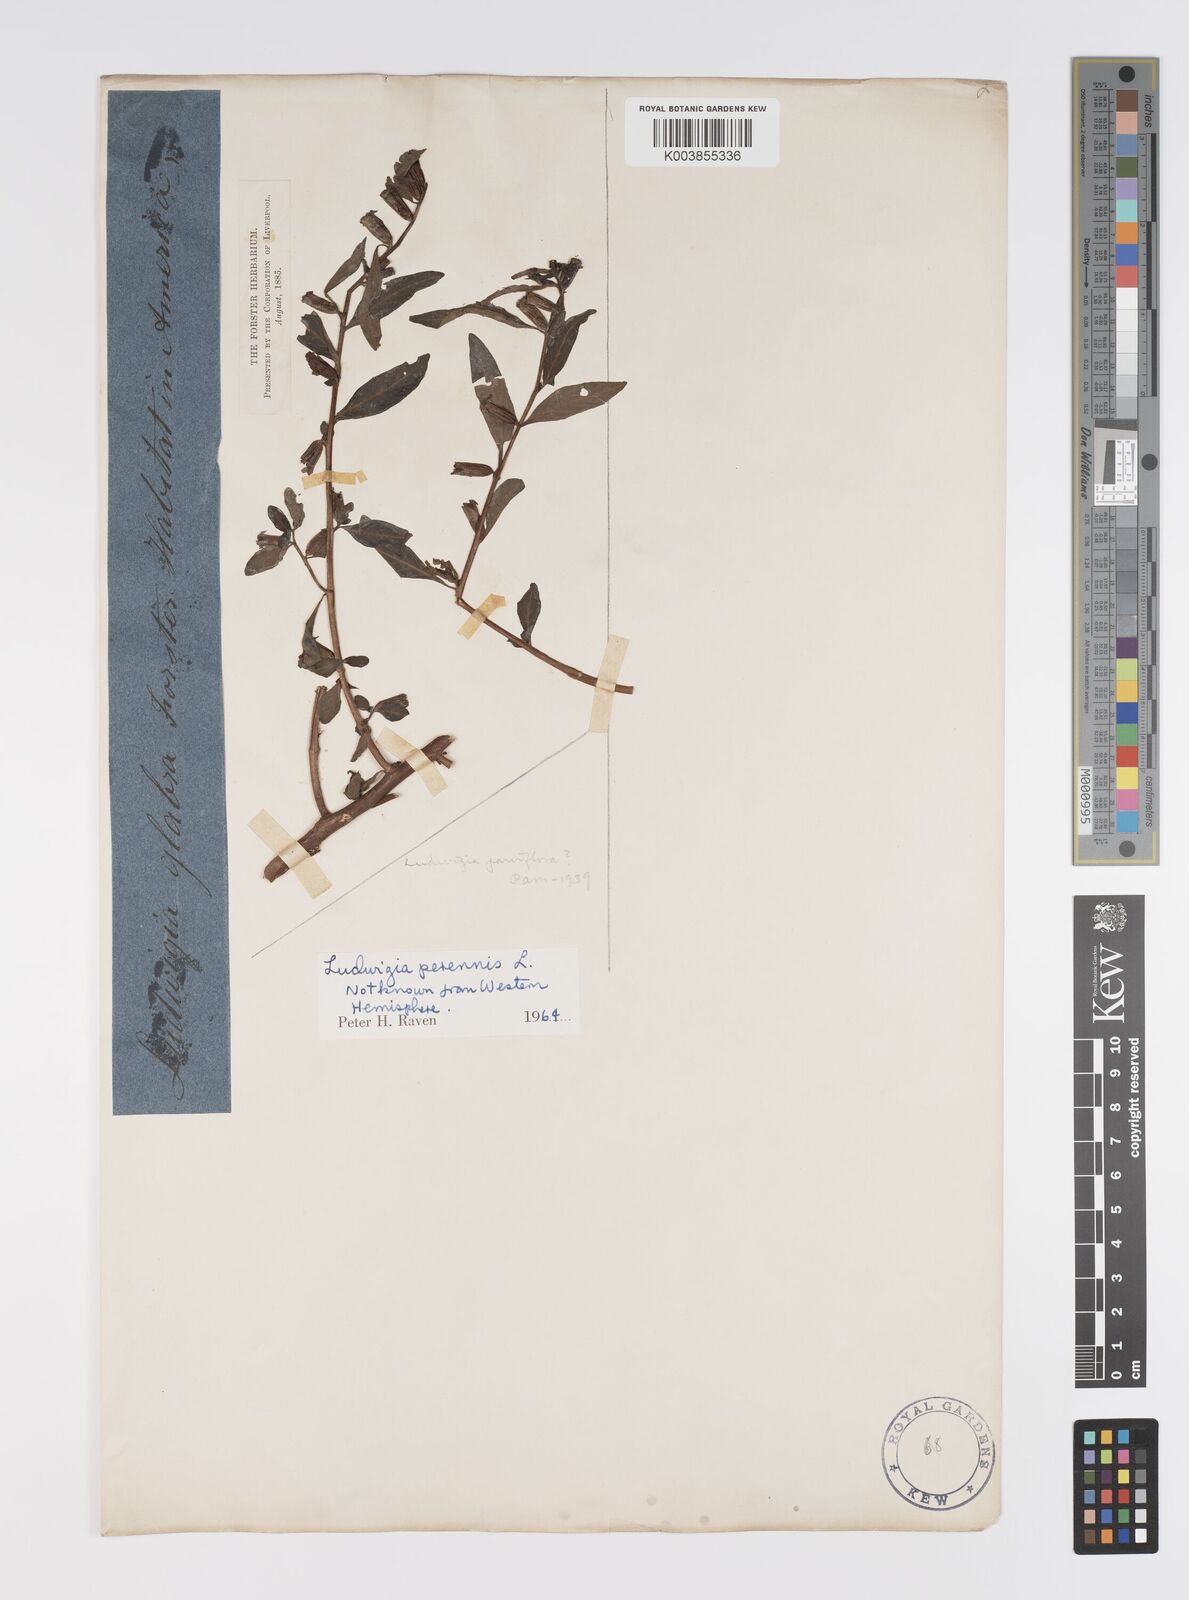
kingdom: Plantae
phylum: Tracheophyta
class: Magnoliopsida
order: Myrtales
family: Onagraceae
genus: Ludwigia
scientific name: Ludwigia perennis
